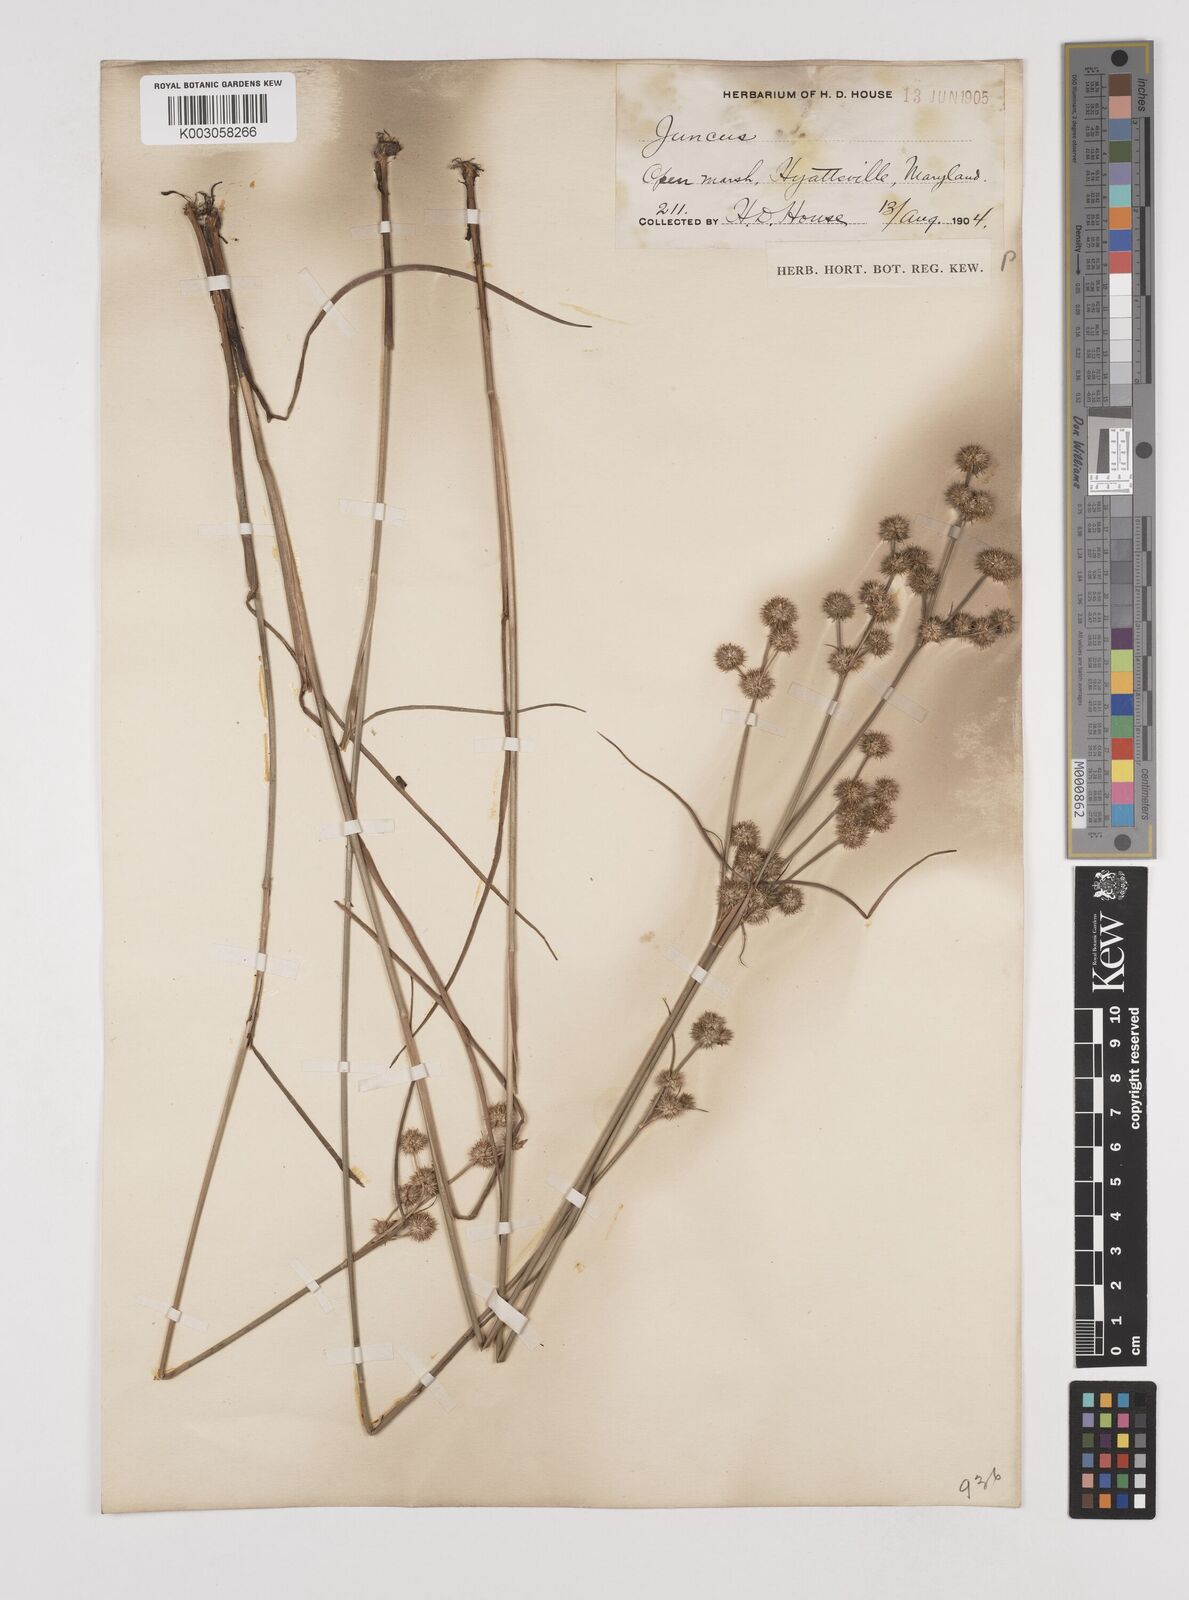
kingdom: Plantae
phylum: Tracheophyta
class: Liliopsida
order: Poales
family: Juncaceae
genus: Juncus
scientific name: Juncus
